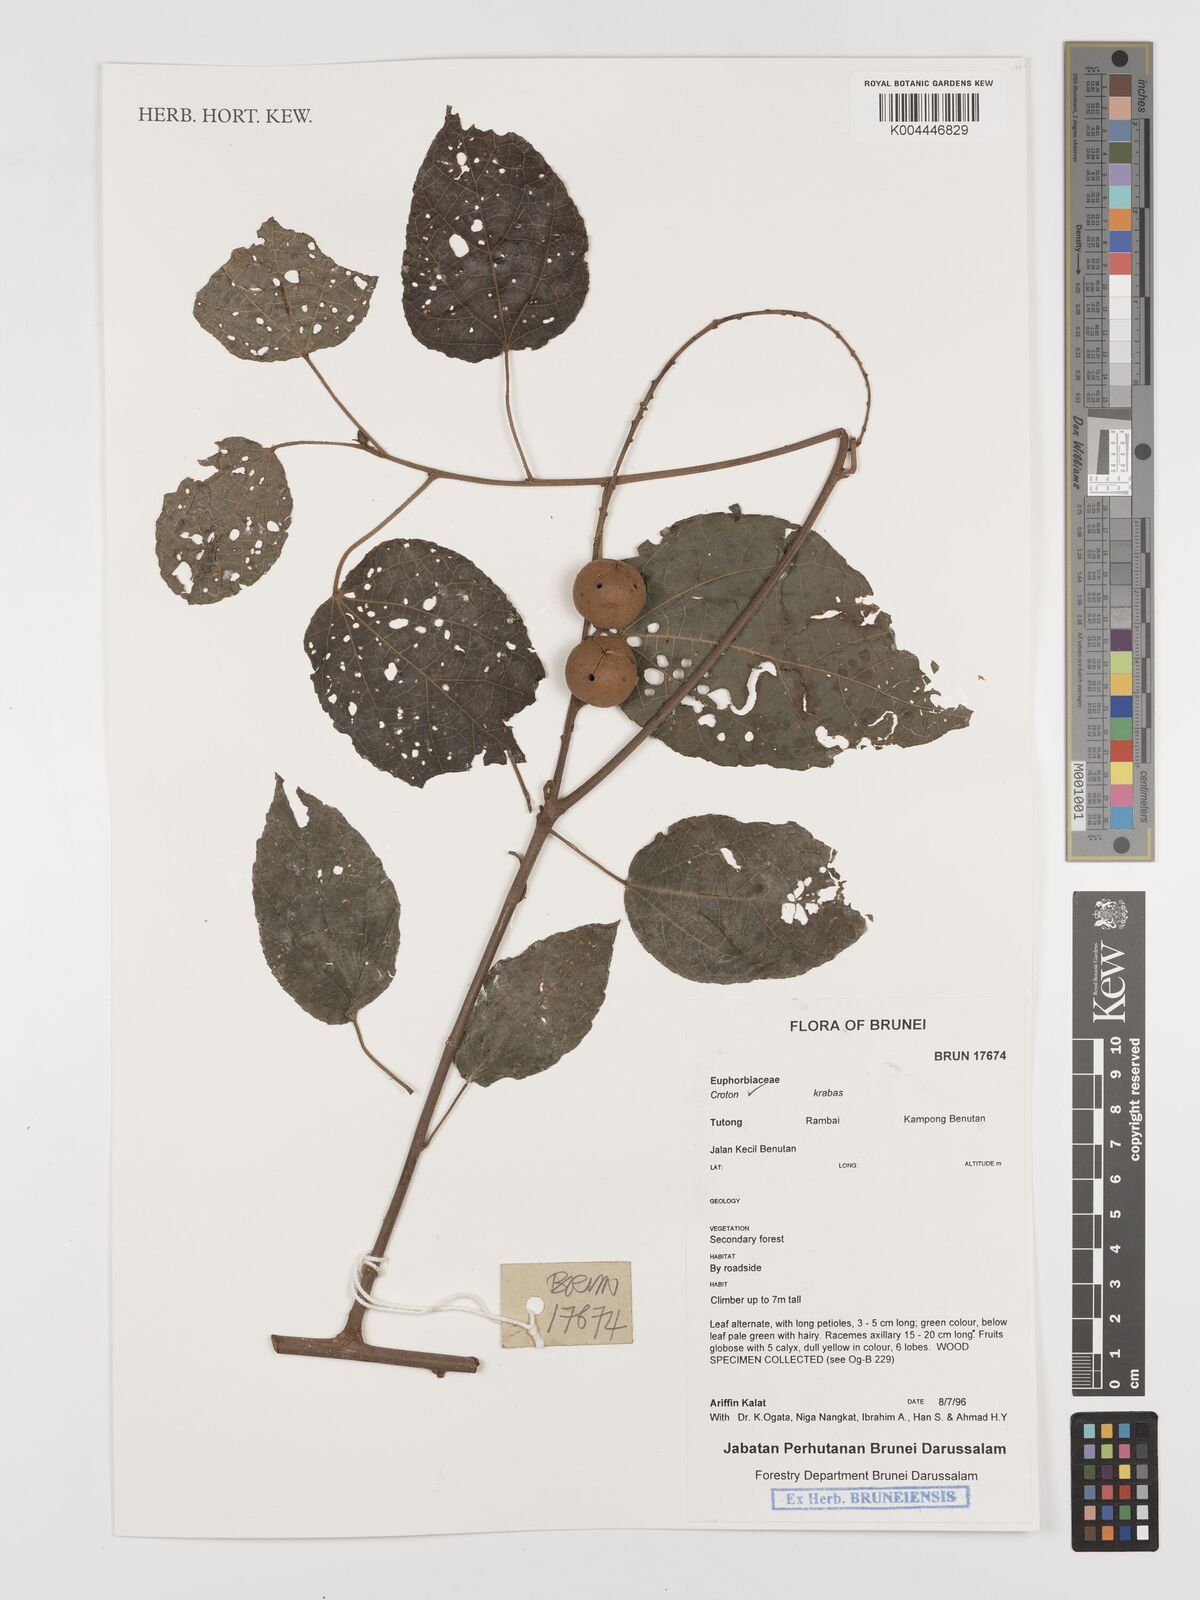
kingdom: Plantae
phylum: Tracheophyta
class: Magnoliopsida
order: Malpighiales
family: Euphorbiaceae
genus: Croton
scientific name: Croton krabas
